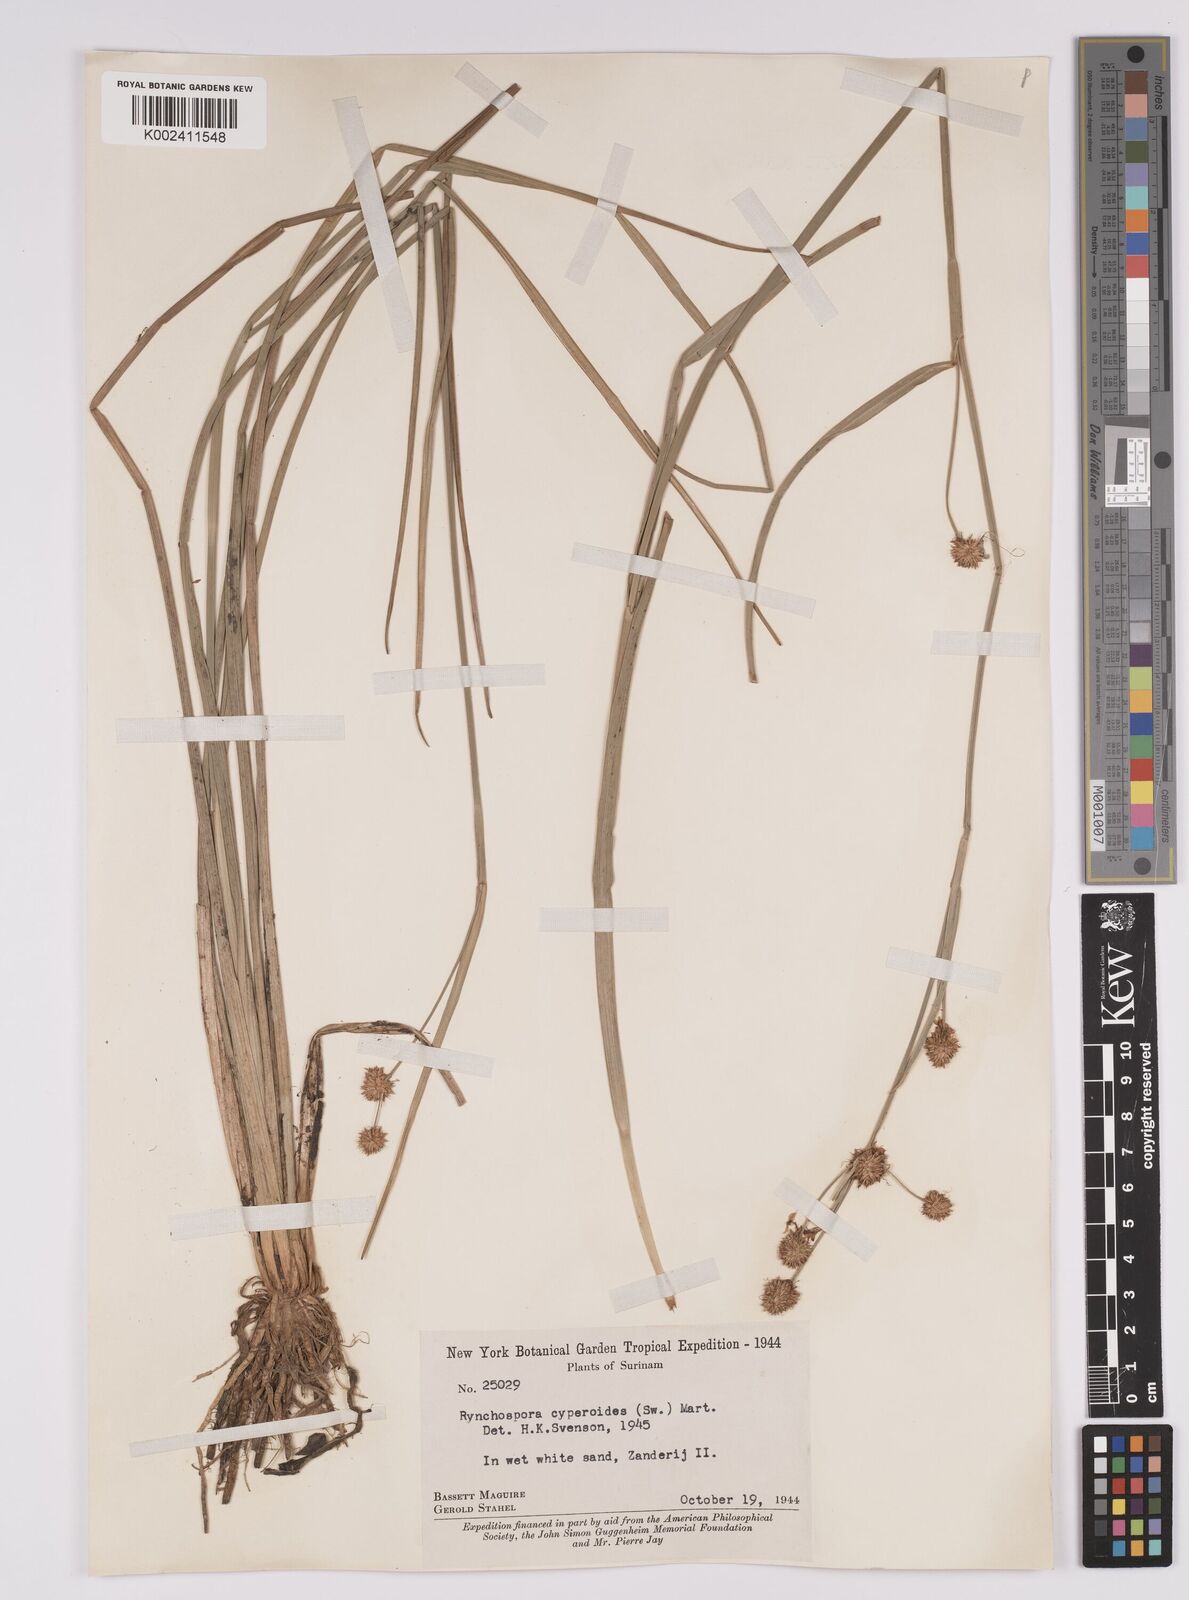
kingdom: Plantae
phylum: Tracheophyta
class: Liliopsida
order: Poales
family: Cyperaceae
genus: Rhynchospora
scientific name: Rhynchospora holoschoenoides
